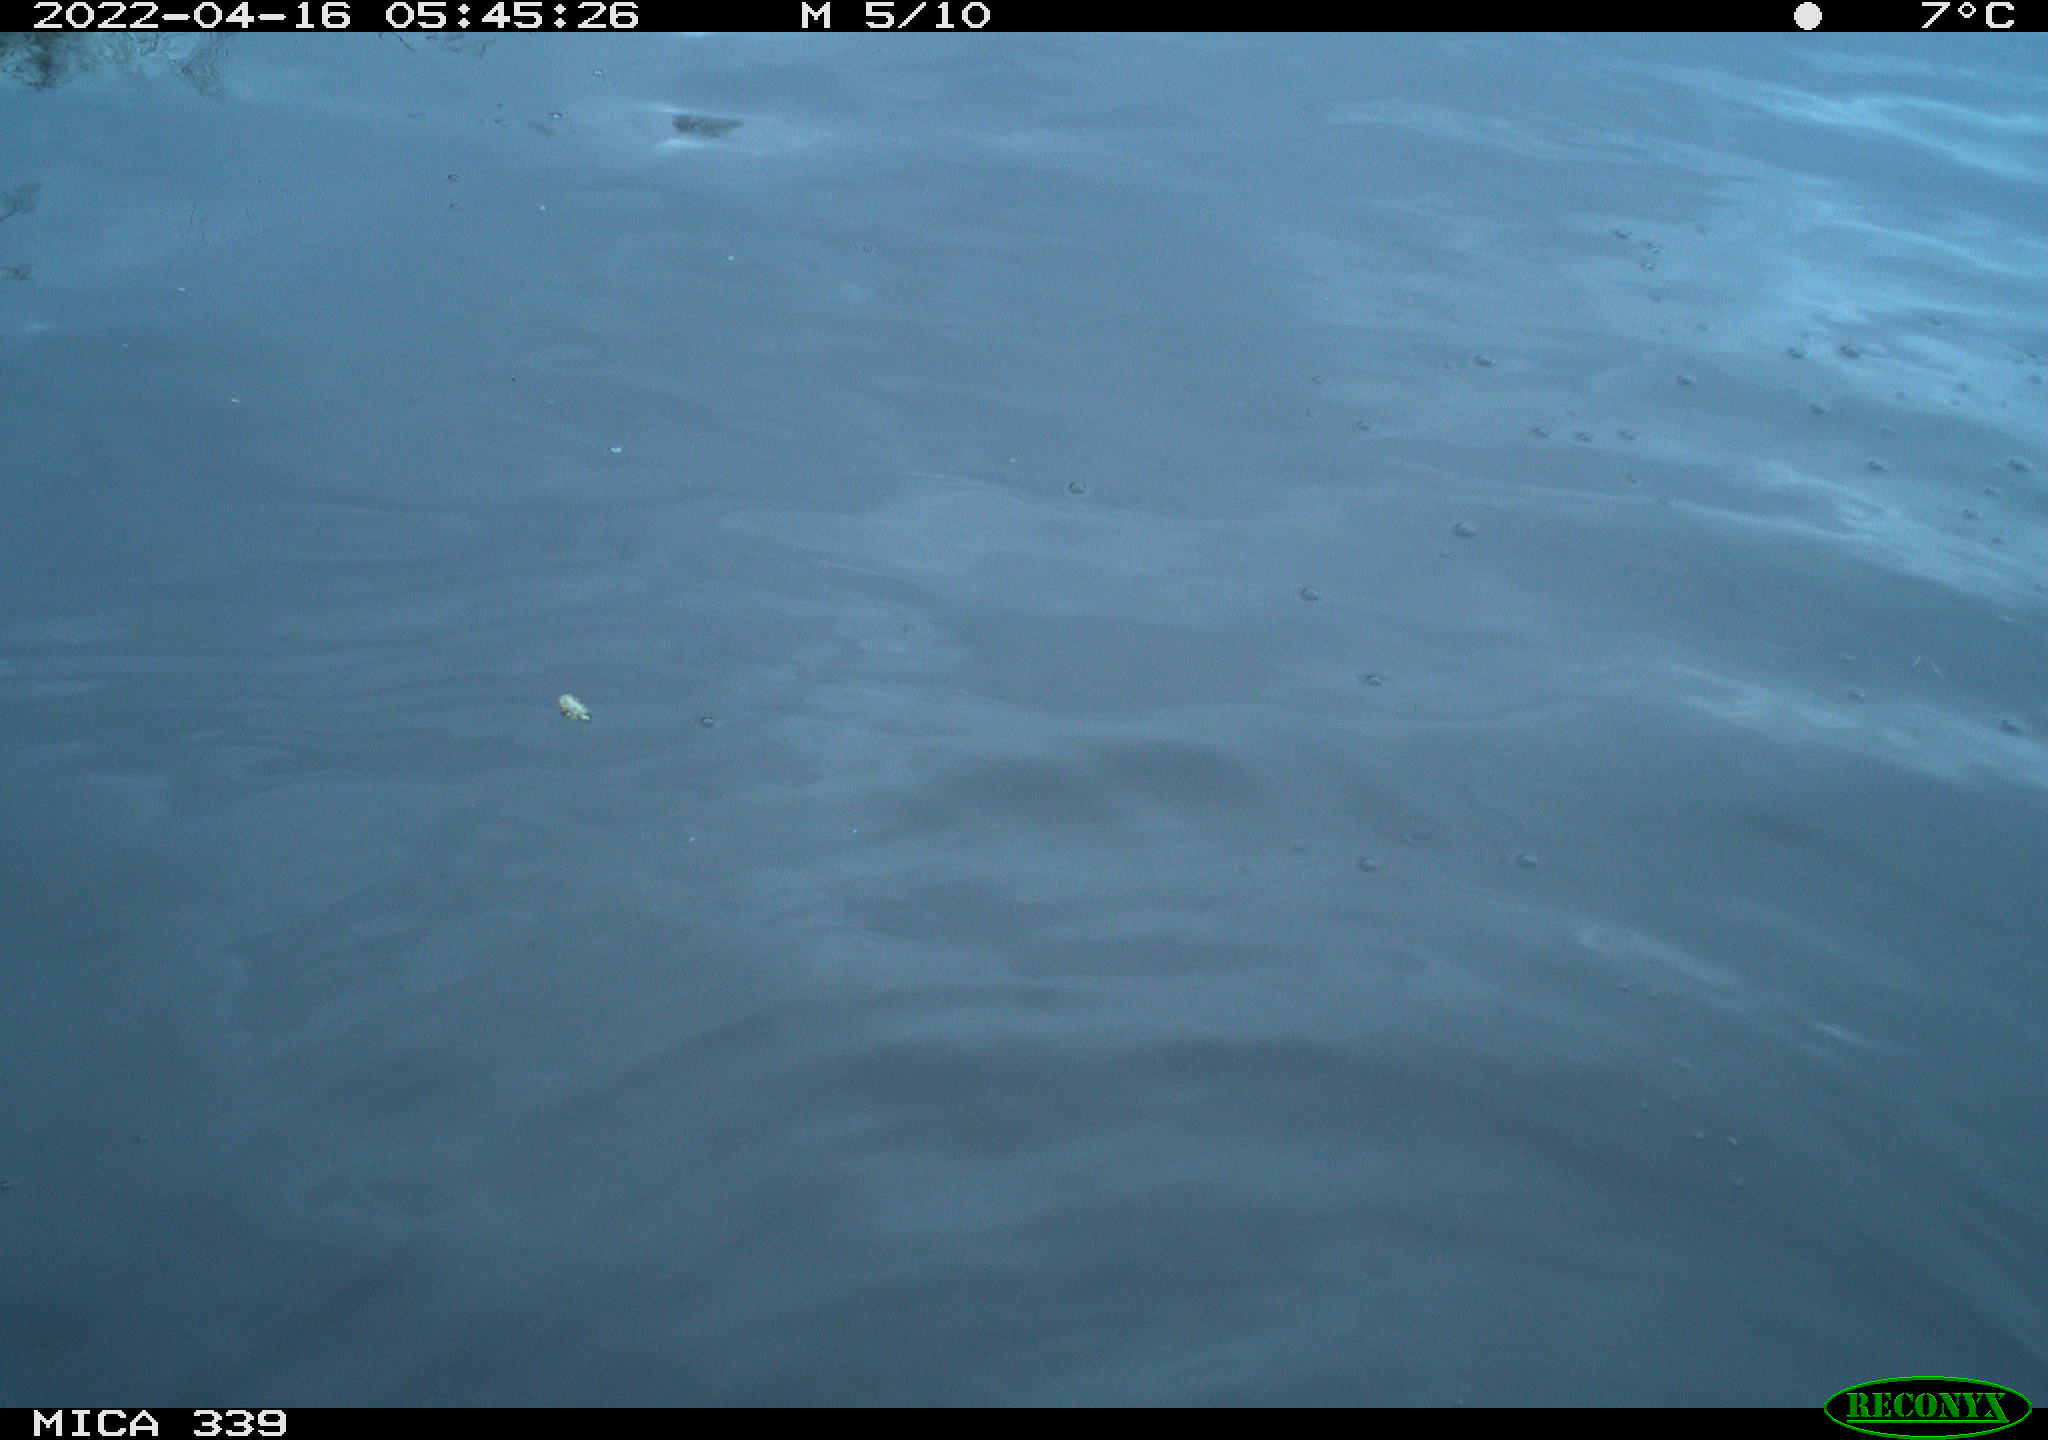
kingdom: Animalia
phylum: Chordata
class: Aves
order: Suliformes
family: Phalacrocoracidae
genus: Phalacrocorax
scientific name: Phalacrocorax carbo
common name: Great cormorant
